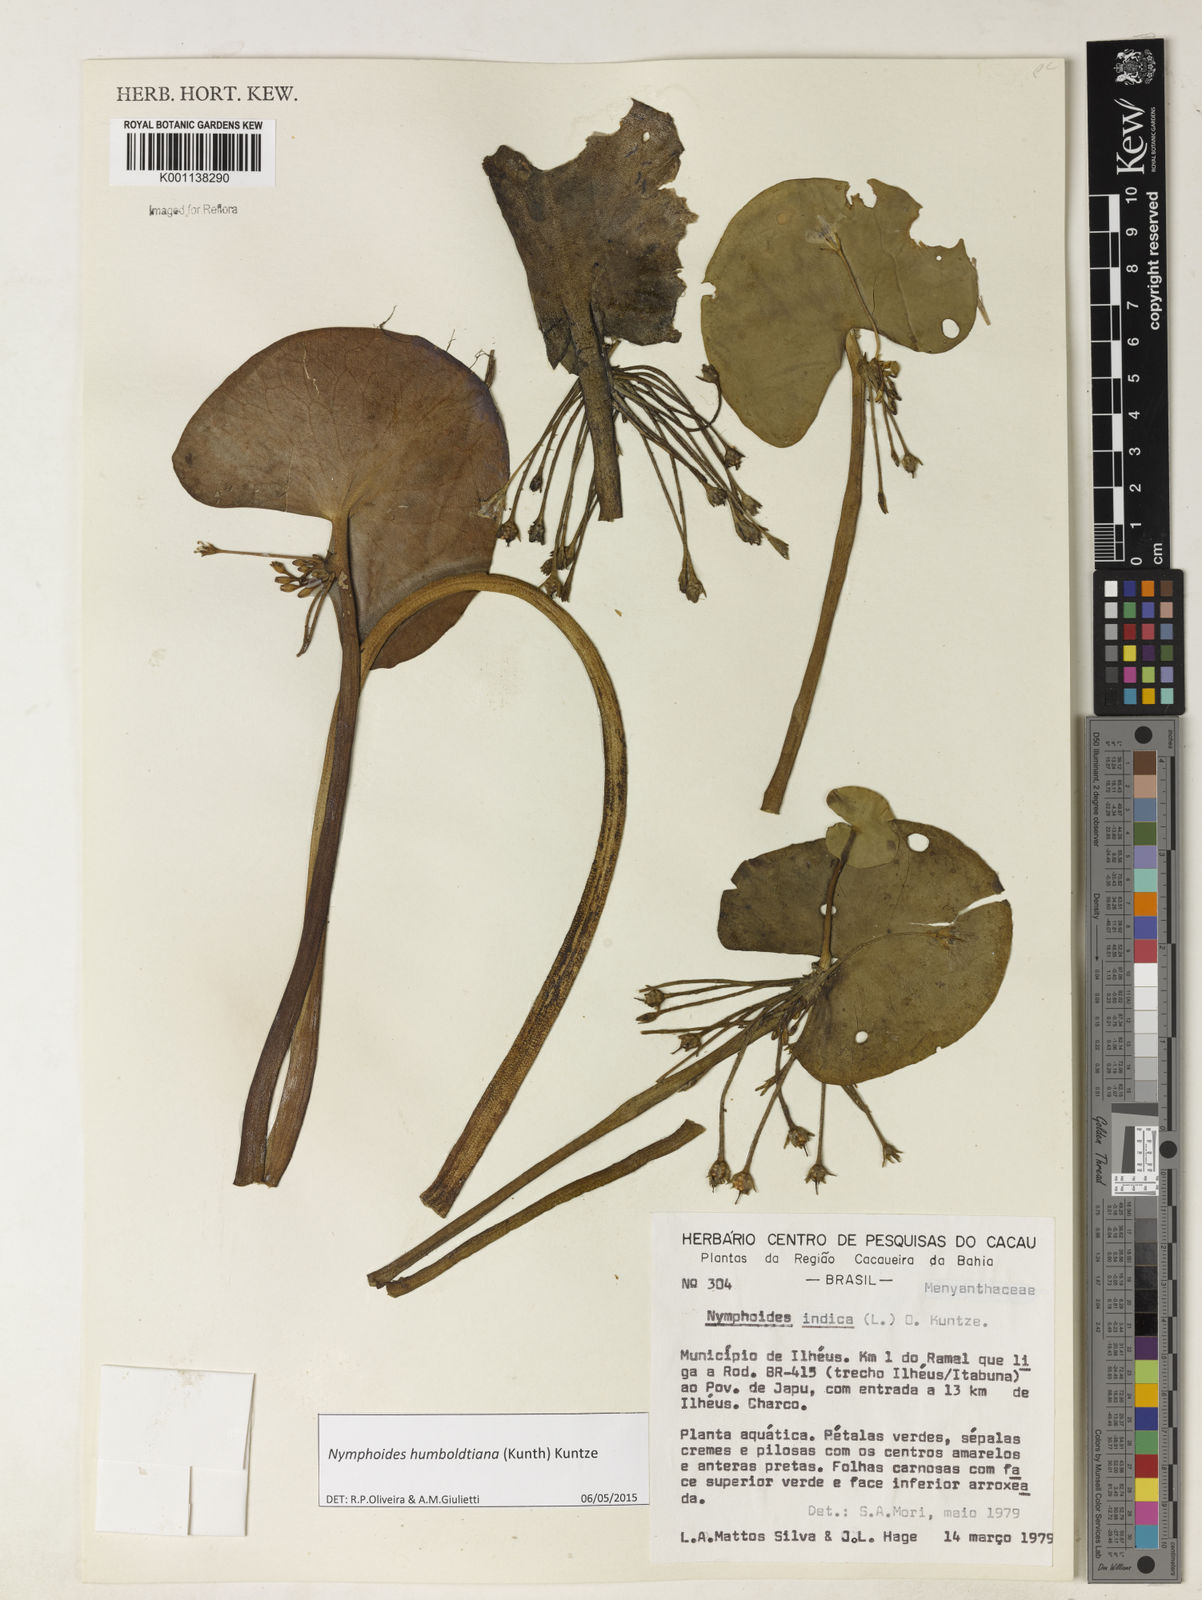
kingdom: Plantae
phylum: Tracheophyta
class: Magnoliopsida
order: Asterales
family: Menyanthaceae
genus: Nymphoides
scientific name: Nymphoides
